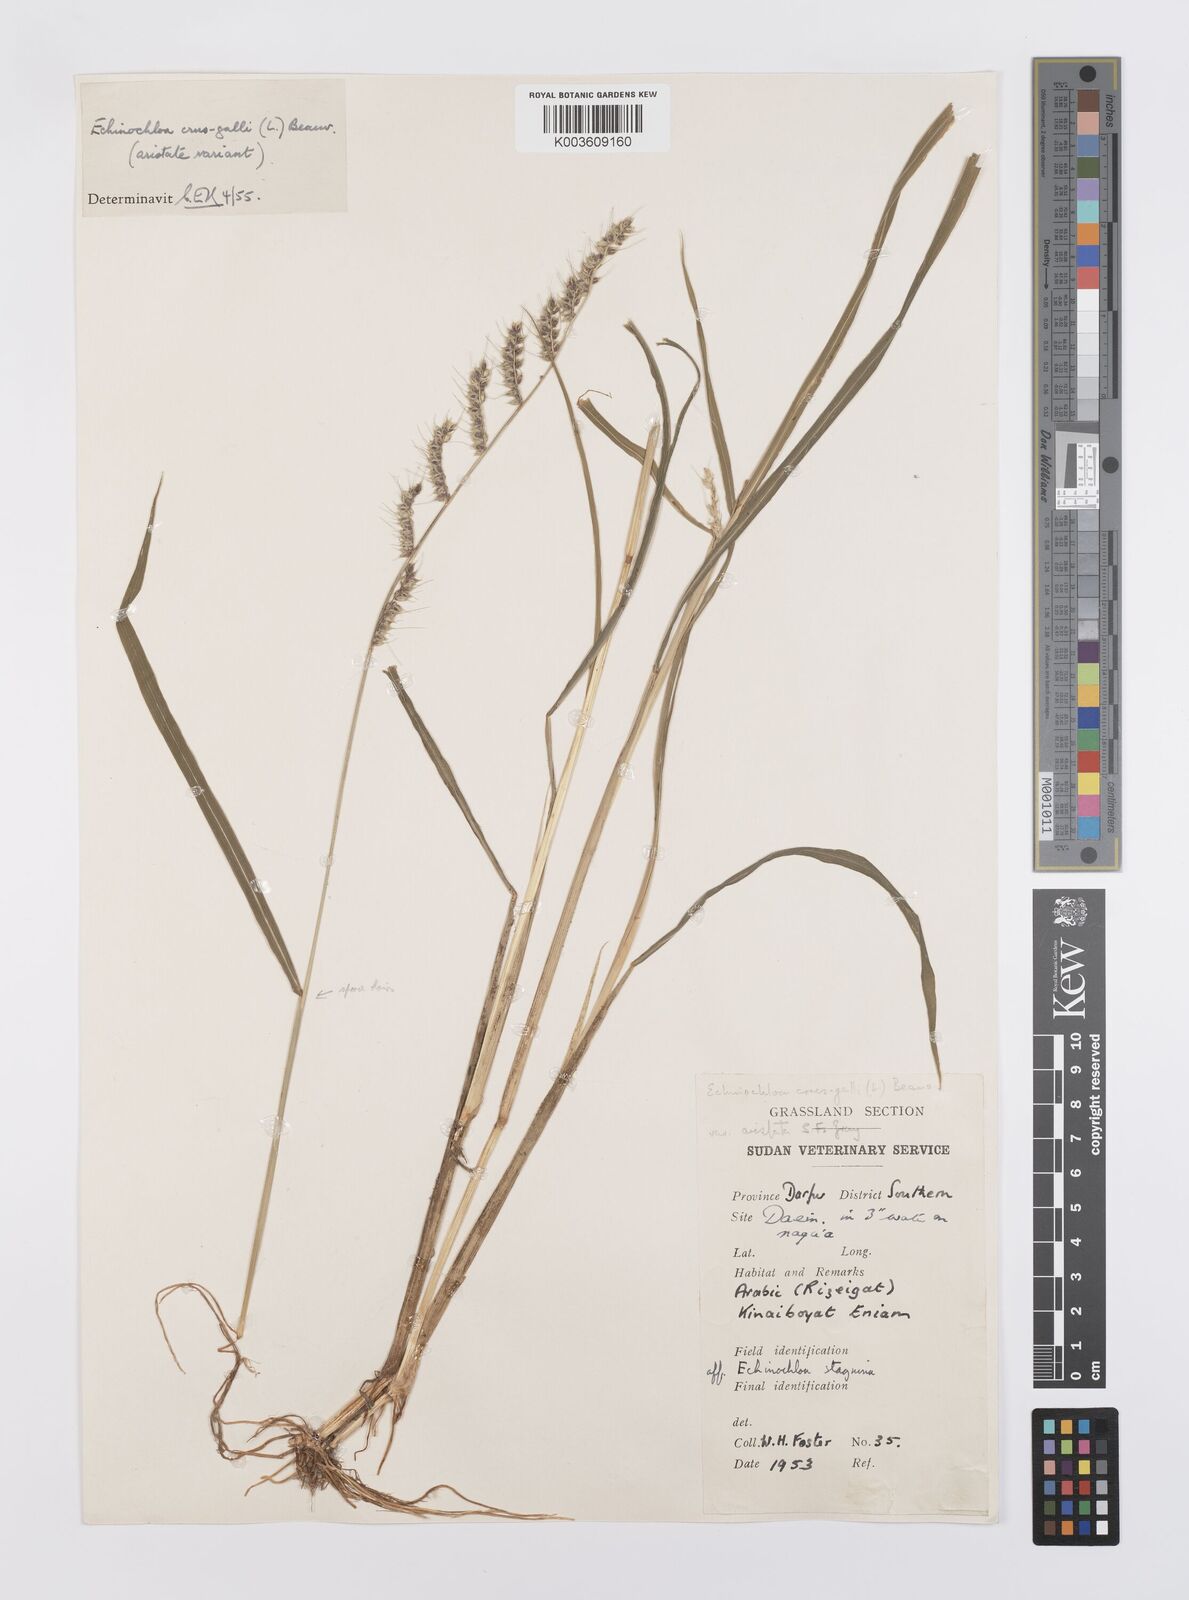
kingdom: Plantae
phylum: Tracheophyta
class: Liliopsida
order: Poales
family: Poaceae
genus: Echinochloa
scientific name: Echinochloa stagnina
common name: Burgu grass
